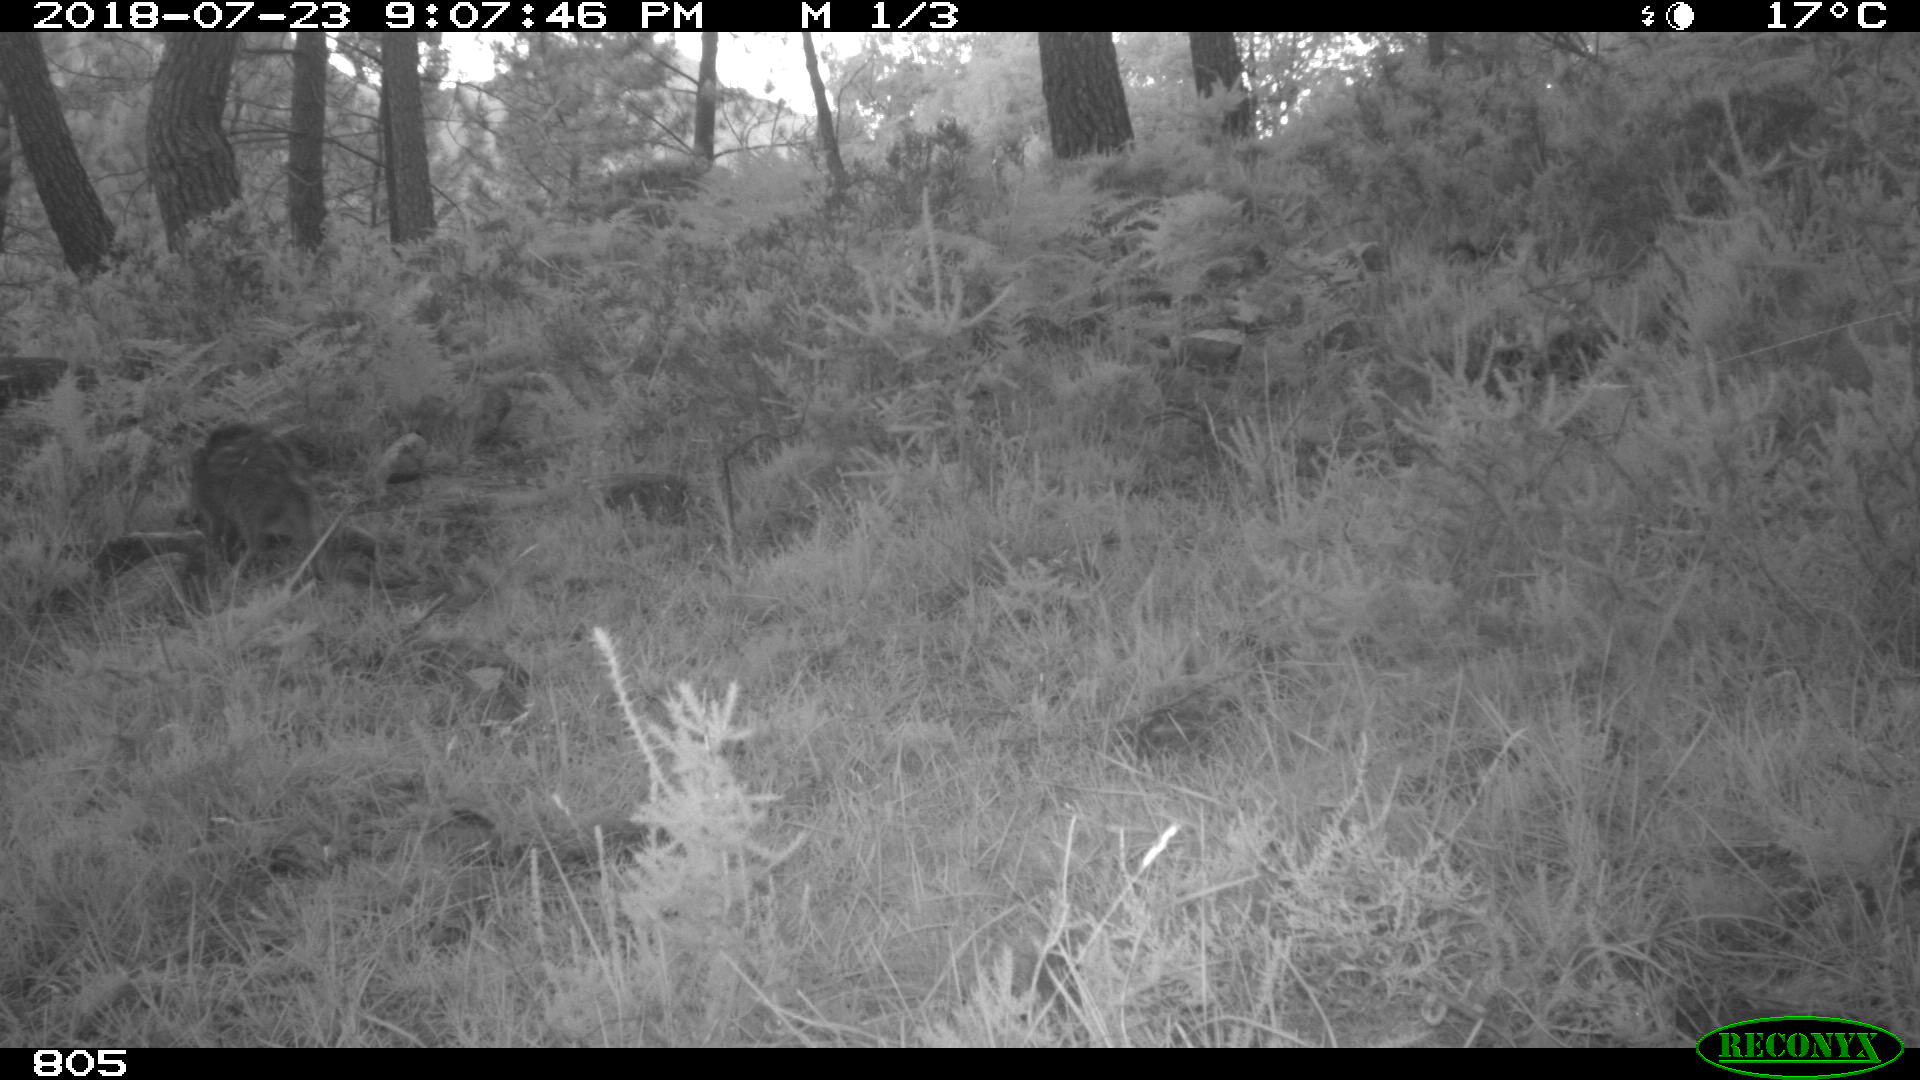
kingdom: Animalia
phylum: Chordata
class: Mammalia
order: Artiodactyla
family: Suidae
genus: Sus
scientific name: Sus scrofa
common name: Wild boar
